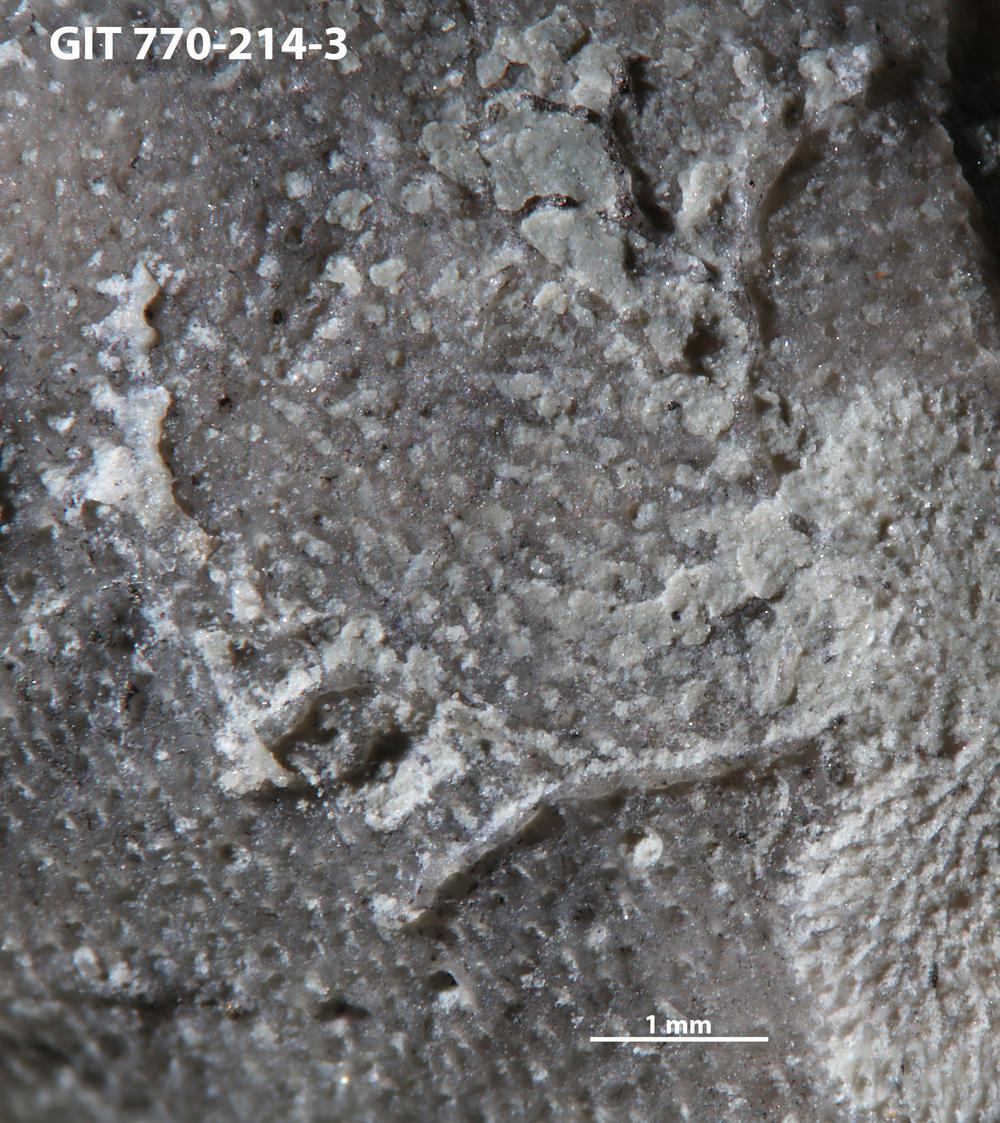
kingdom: Animalia
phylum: Bryozoa
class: Stenolaemata
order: Cyclostomatida
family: Corynotrypidae
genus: Corynotrypa
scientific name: Corynotrypa
